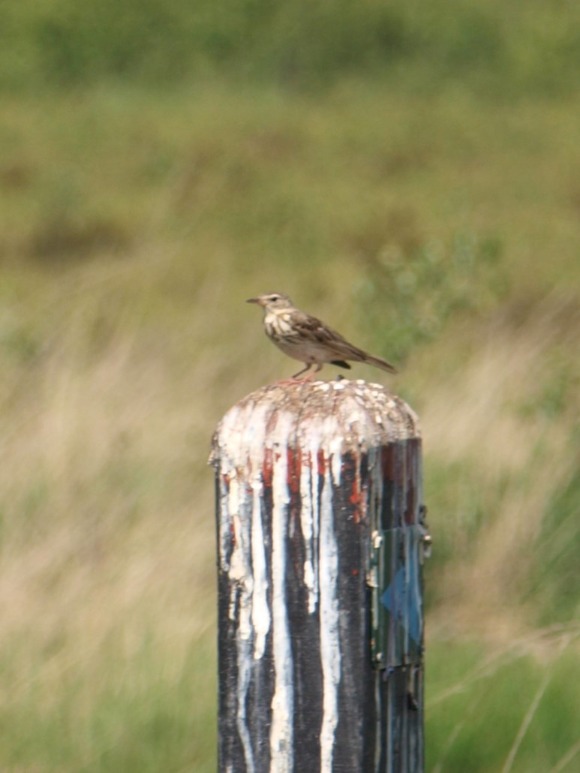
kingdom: Animalia
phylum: Chordata
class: Aves
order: Passeriformes
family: Motacillidae
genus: Anthus
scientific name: Anthus pratensis
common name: Engpiber
